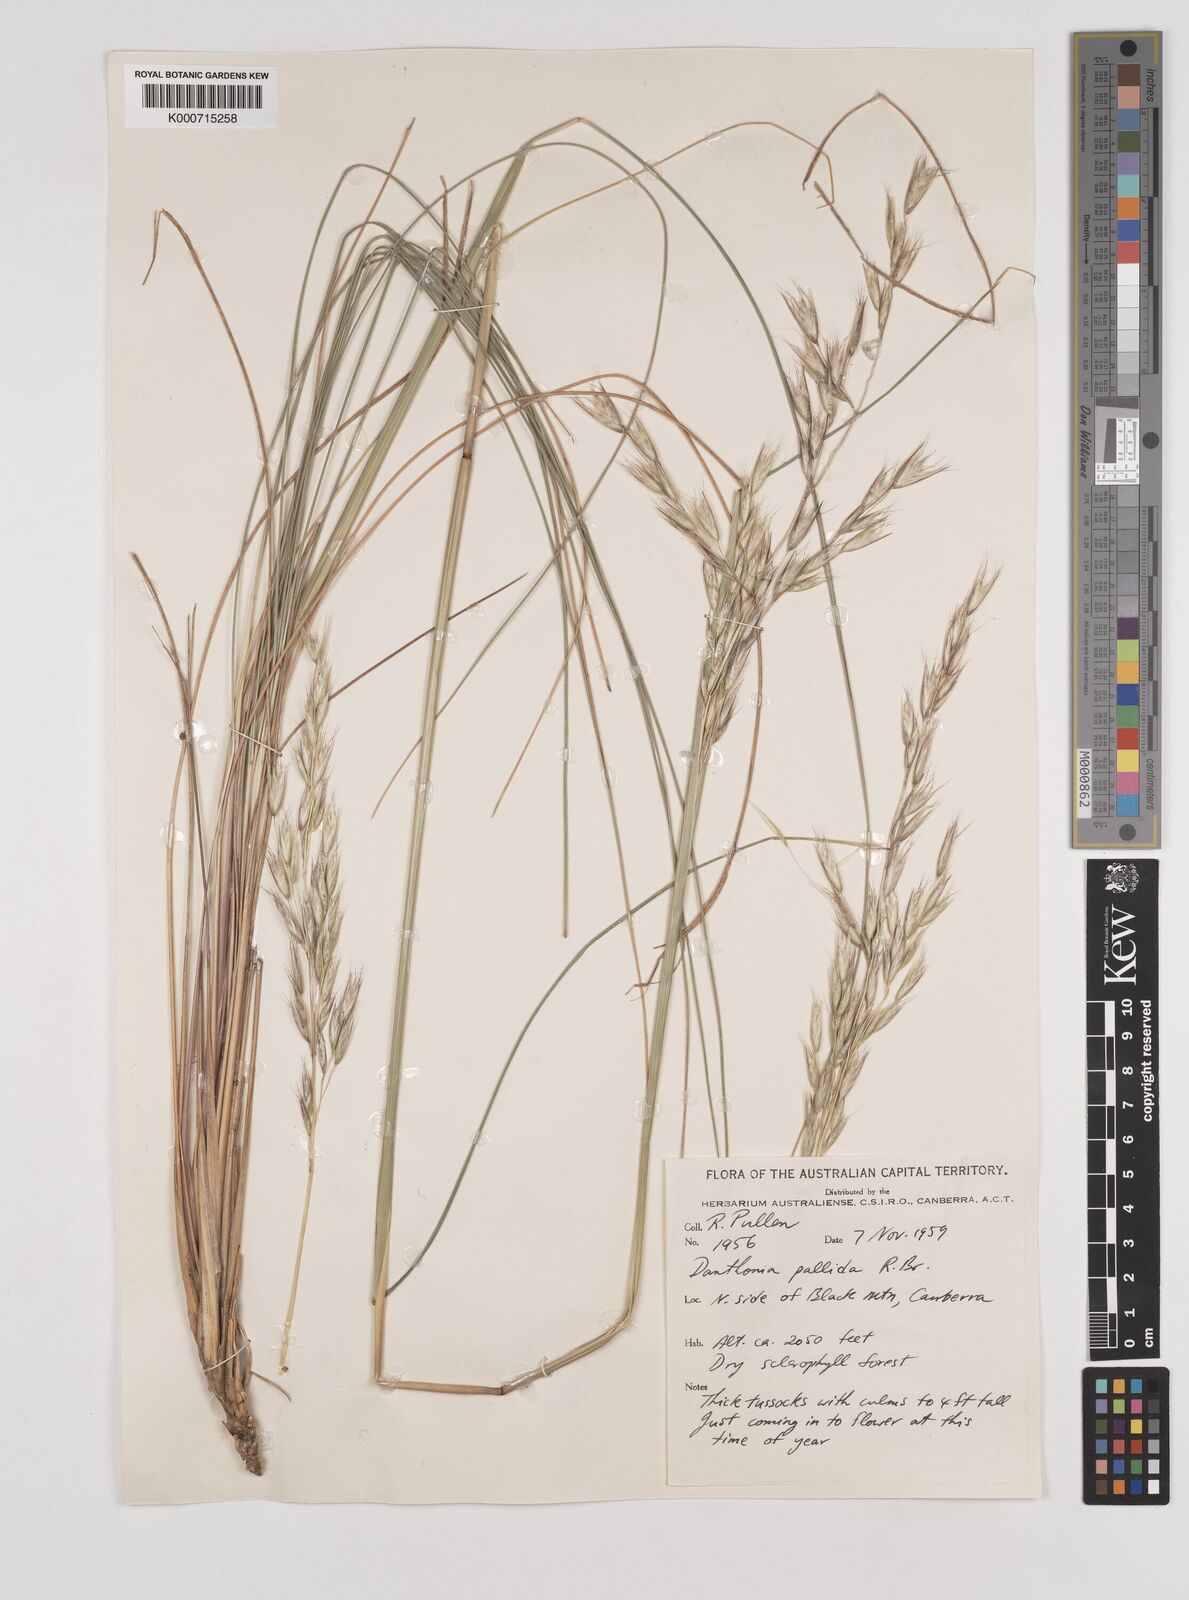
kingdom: Plantae
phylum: Tracheophyta
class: Liliopsida
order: Poales
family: Poaceae
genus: Rytidosperma
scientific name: Rytidosperma
